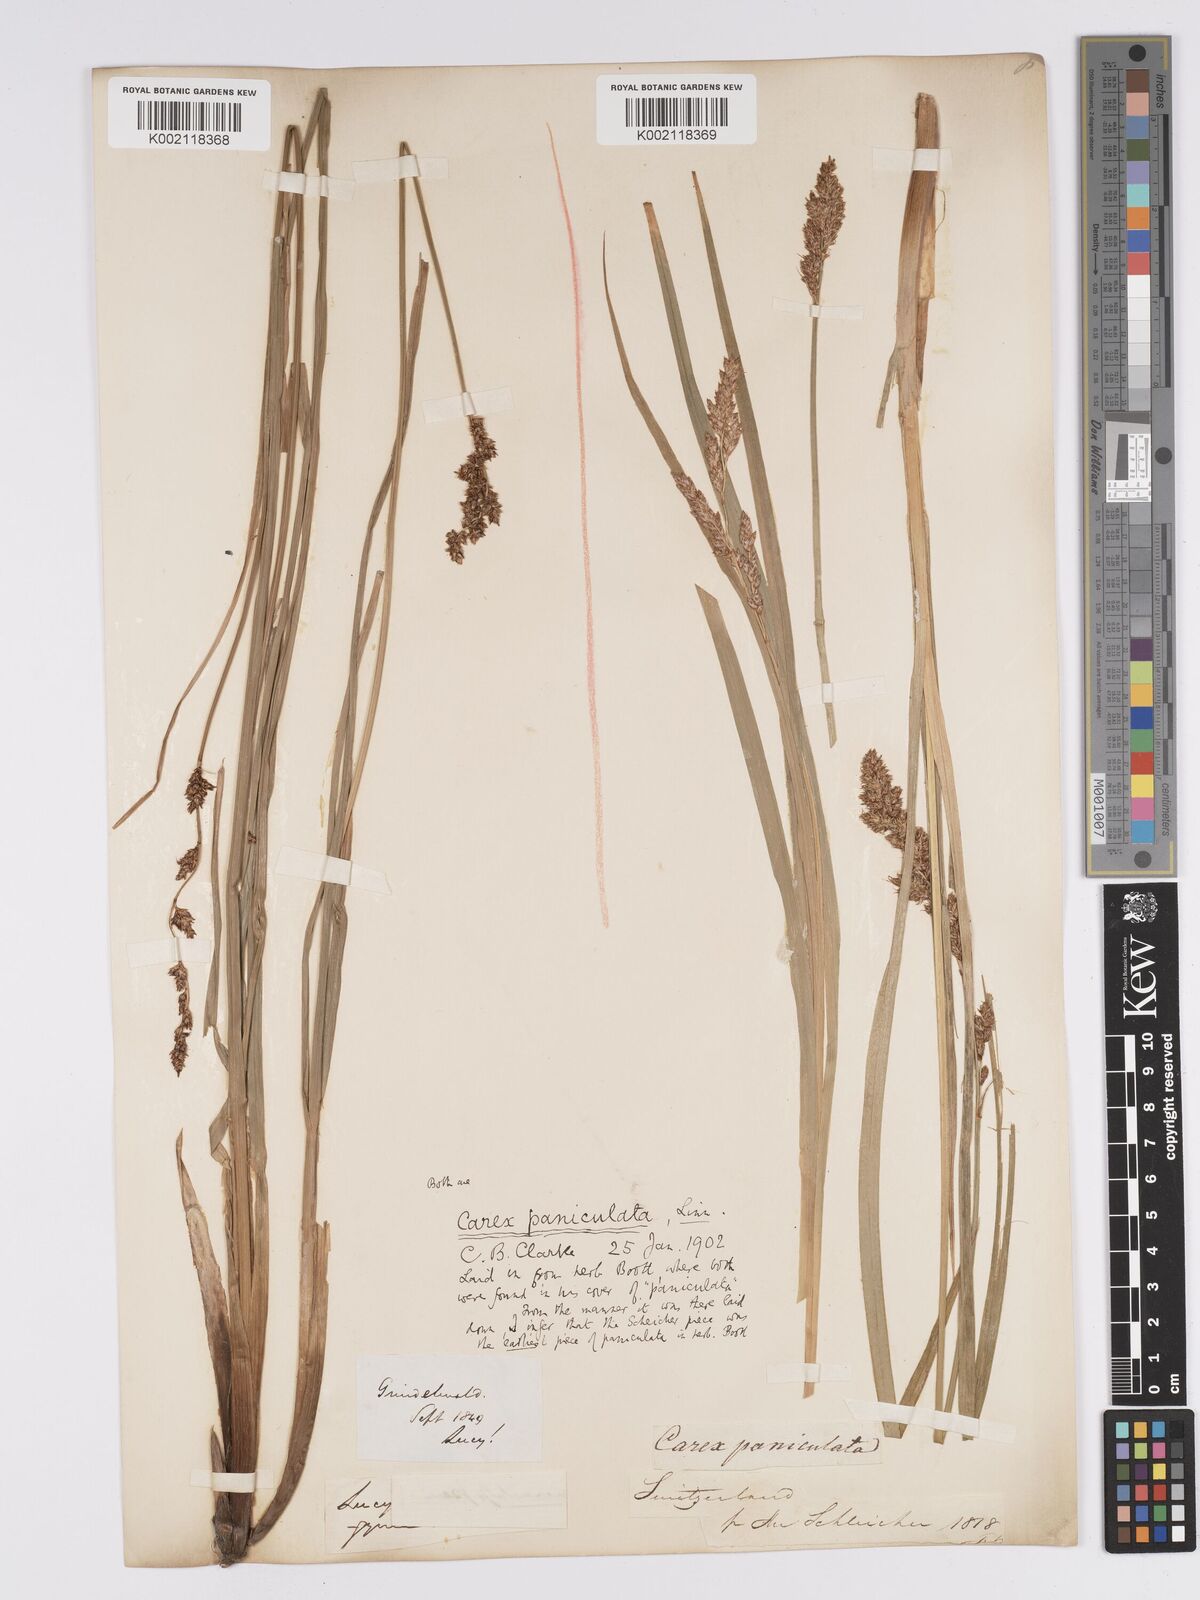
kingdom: Plantae
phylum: Tracheophyta
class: Liliopsida
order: Poales
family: Cyperaceae
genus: Carex
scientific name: Carex paniculata
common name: Greater tussock-sedge
